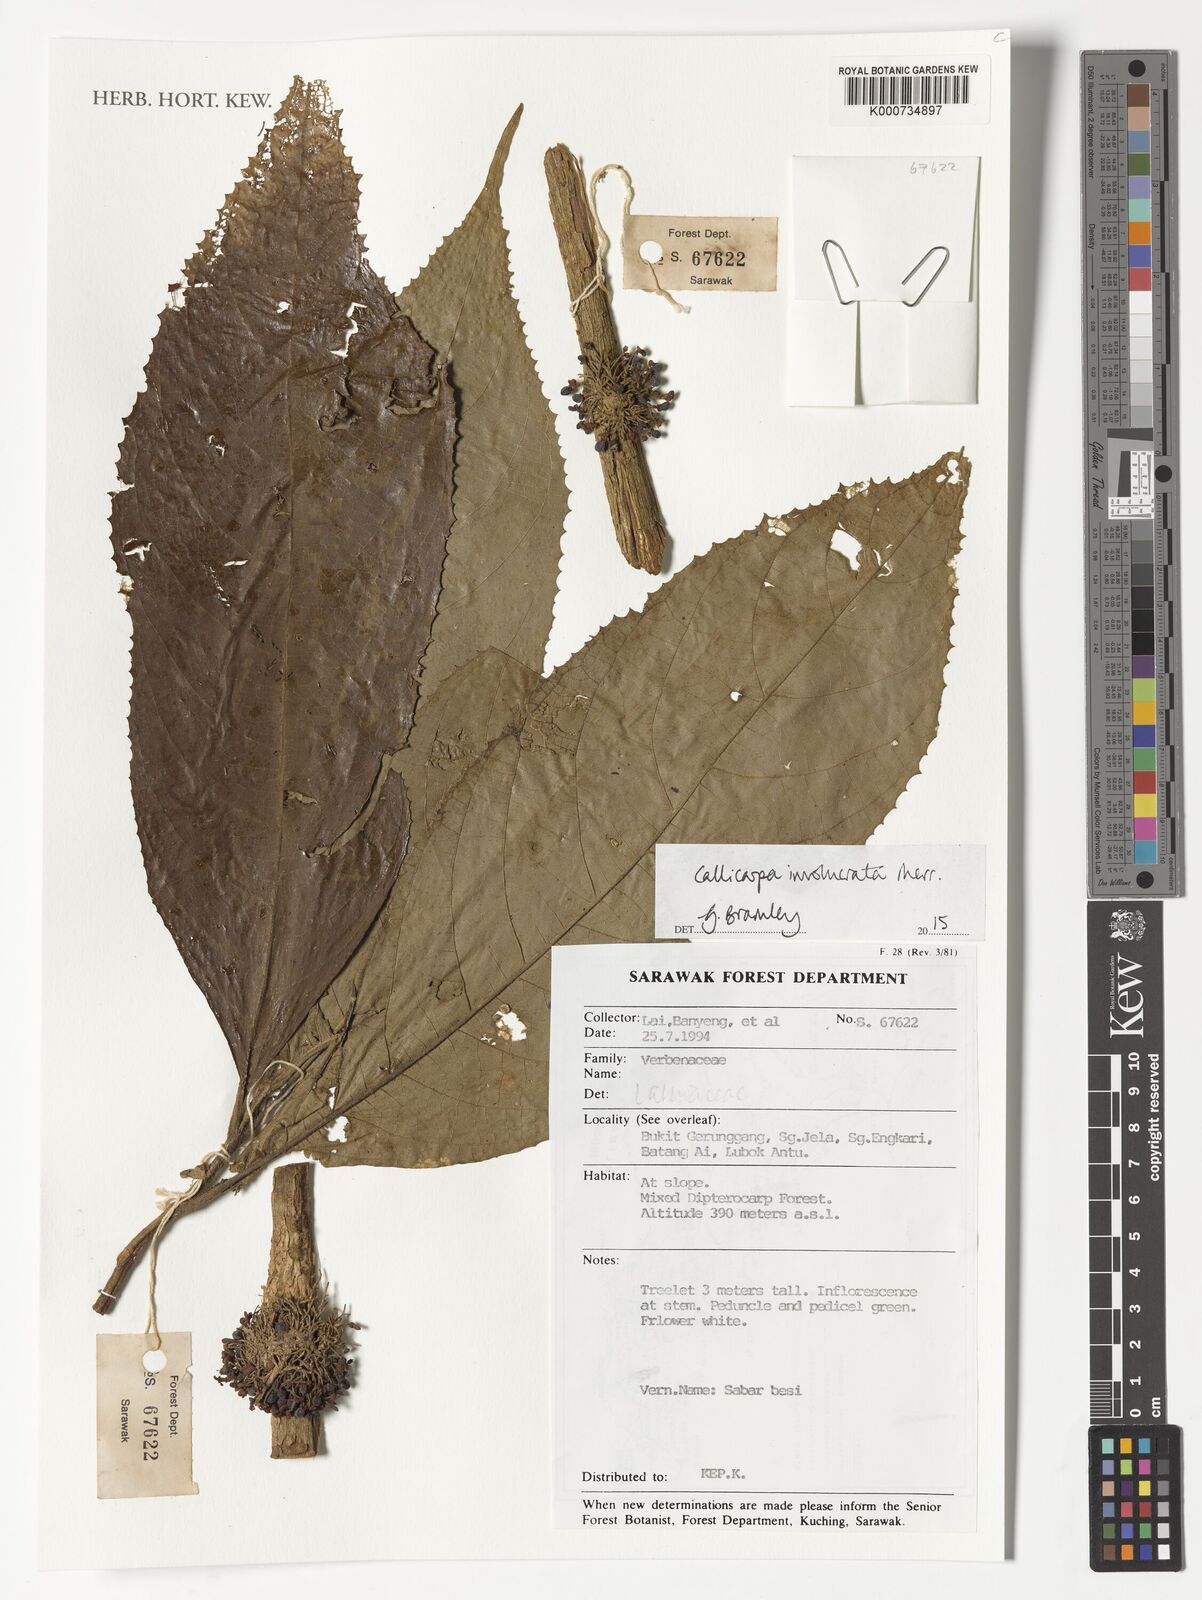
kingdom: Plantae
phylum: Tracheophyta
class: Magnoliopsida
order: Lamiales
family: Lamiaceae
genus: Callicarpa
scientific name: Callicarpa involucrata
